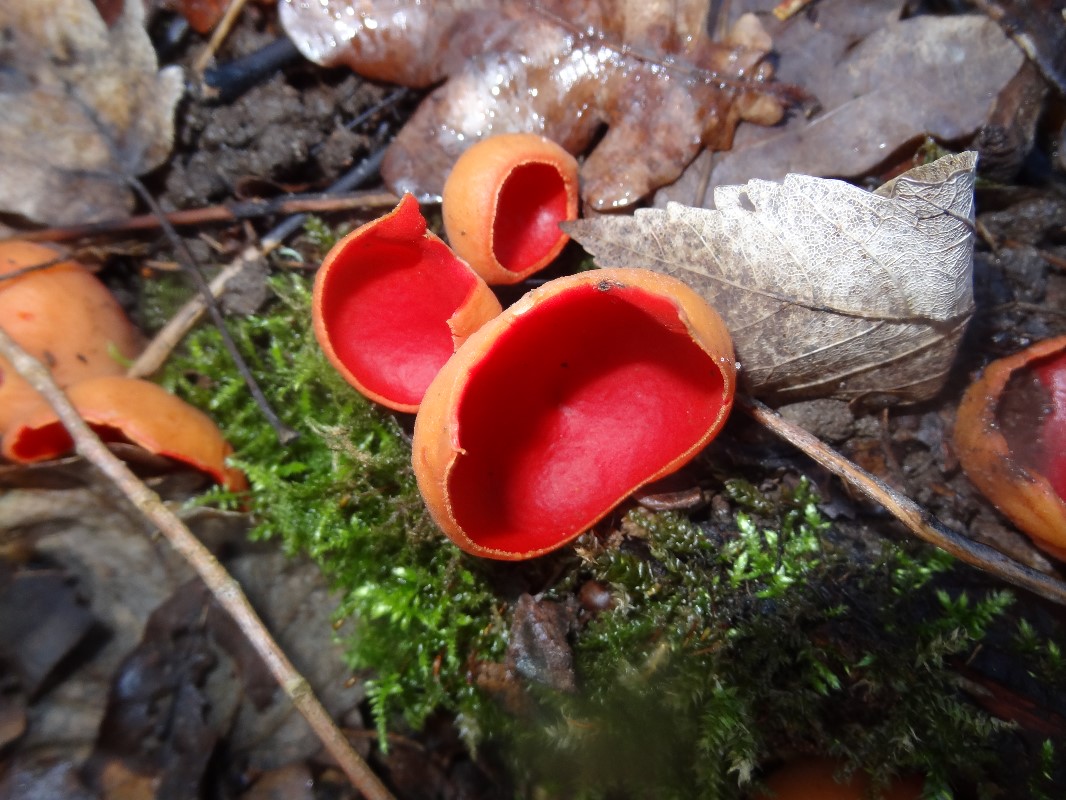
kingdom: Fungi
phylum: Ascomycota
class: Pezizomycetes
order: Pezizales
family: Sarcoscyphaceae
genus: Sarcoscypha
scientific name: Sarcoscypha austriaca
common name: krølhåret pragtbæger
